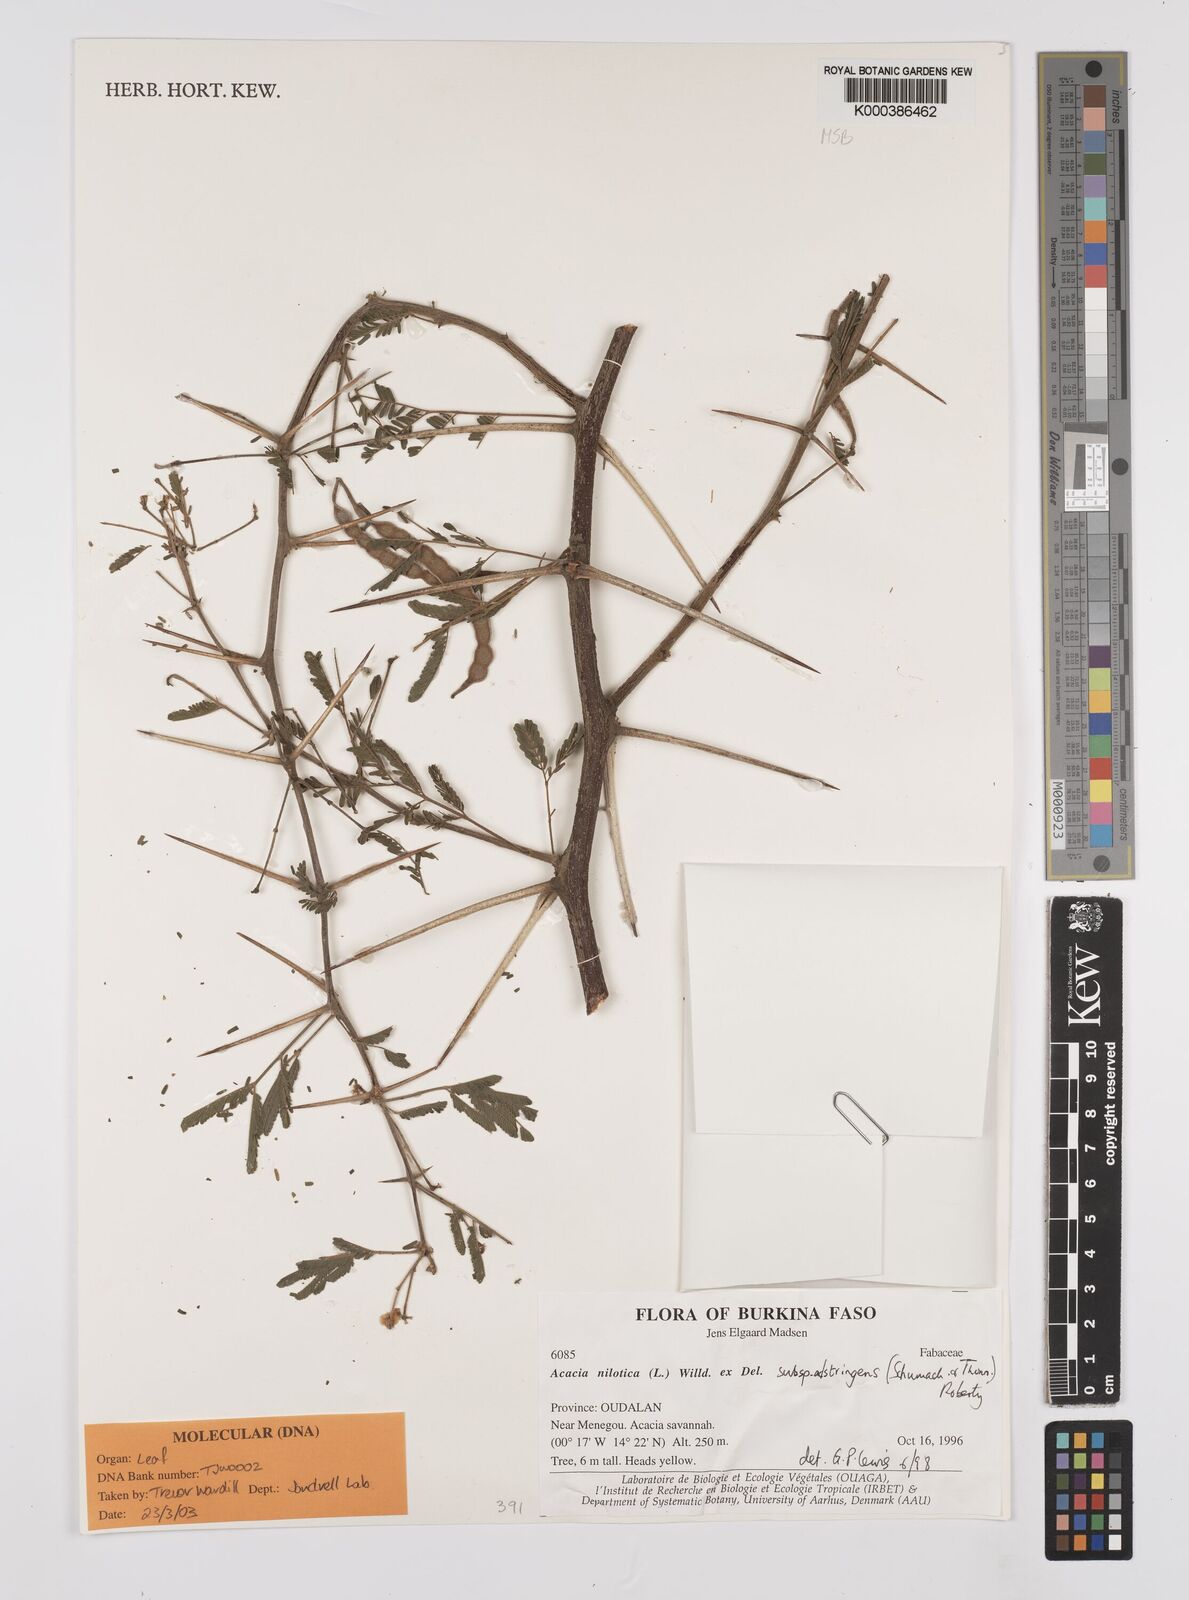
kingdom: Plantae
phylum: Tracheophyta
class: Magnoliopsida
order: Fabales
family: Fabaceae
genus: Vachellia
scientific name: Vachellia nilotica
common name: Arabic gumtree
